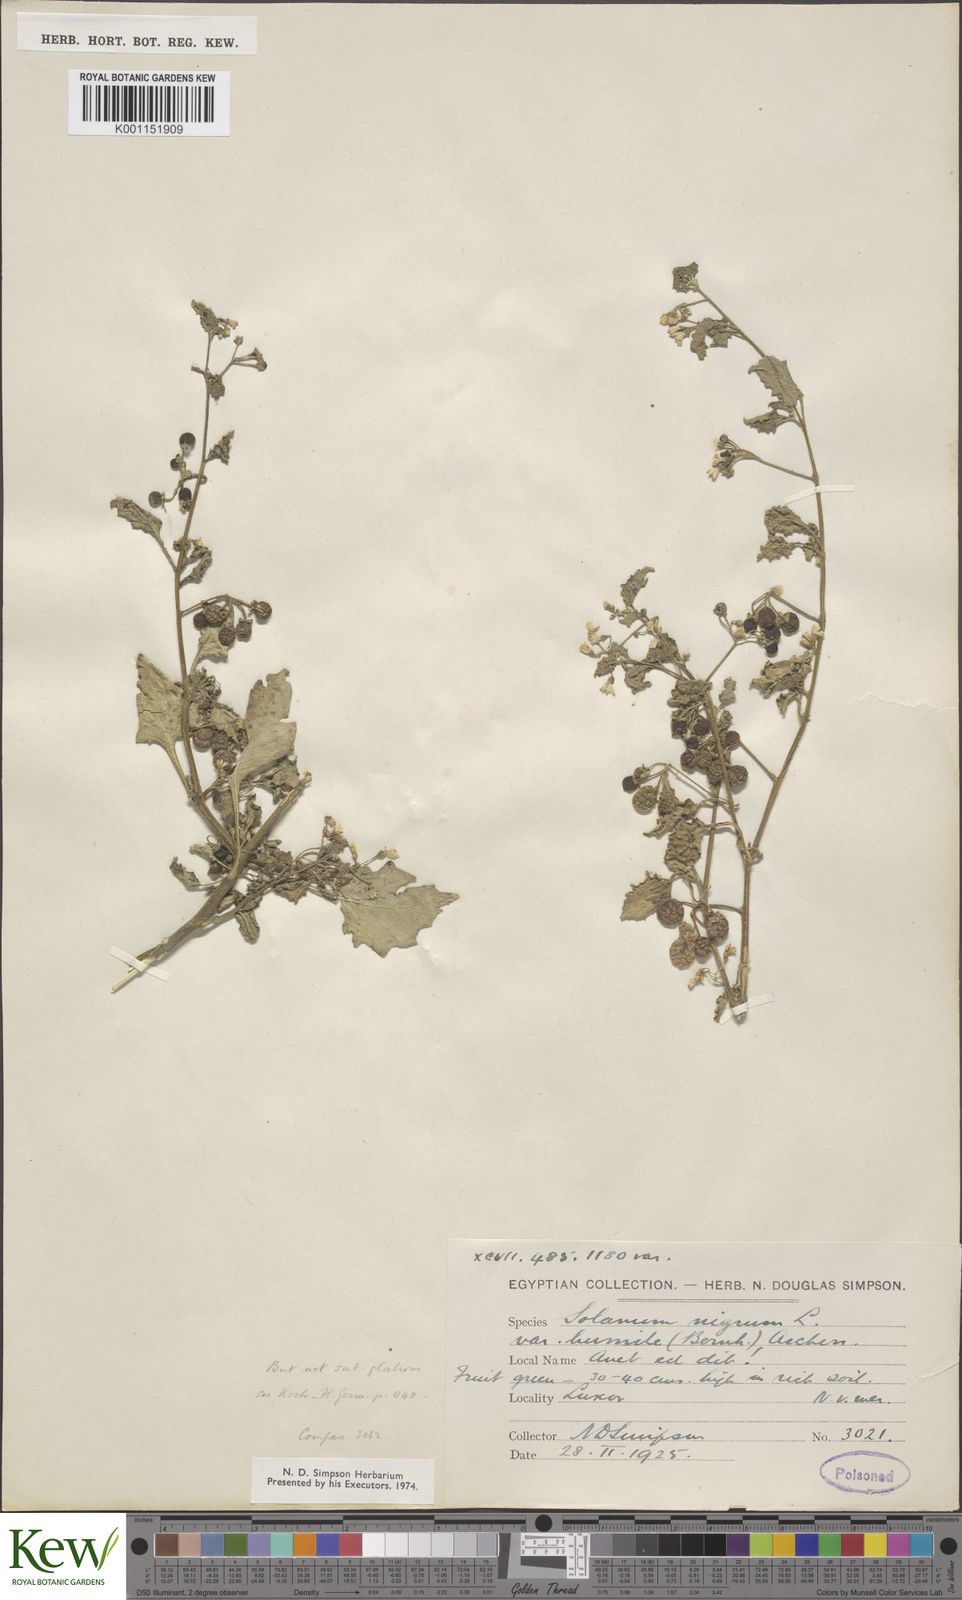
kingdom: Plantae
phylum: Tracheophyta
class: Magnoliopsida
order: Solanales
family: Solanaceae
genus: Solanum
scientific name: Solanum villosum
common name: Red nightshade
